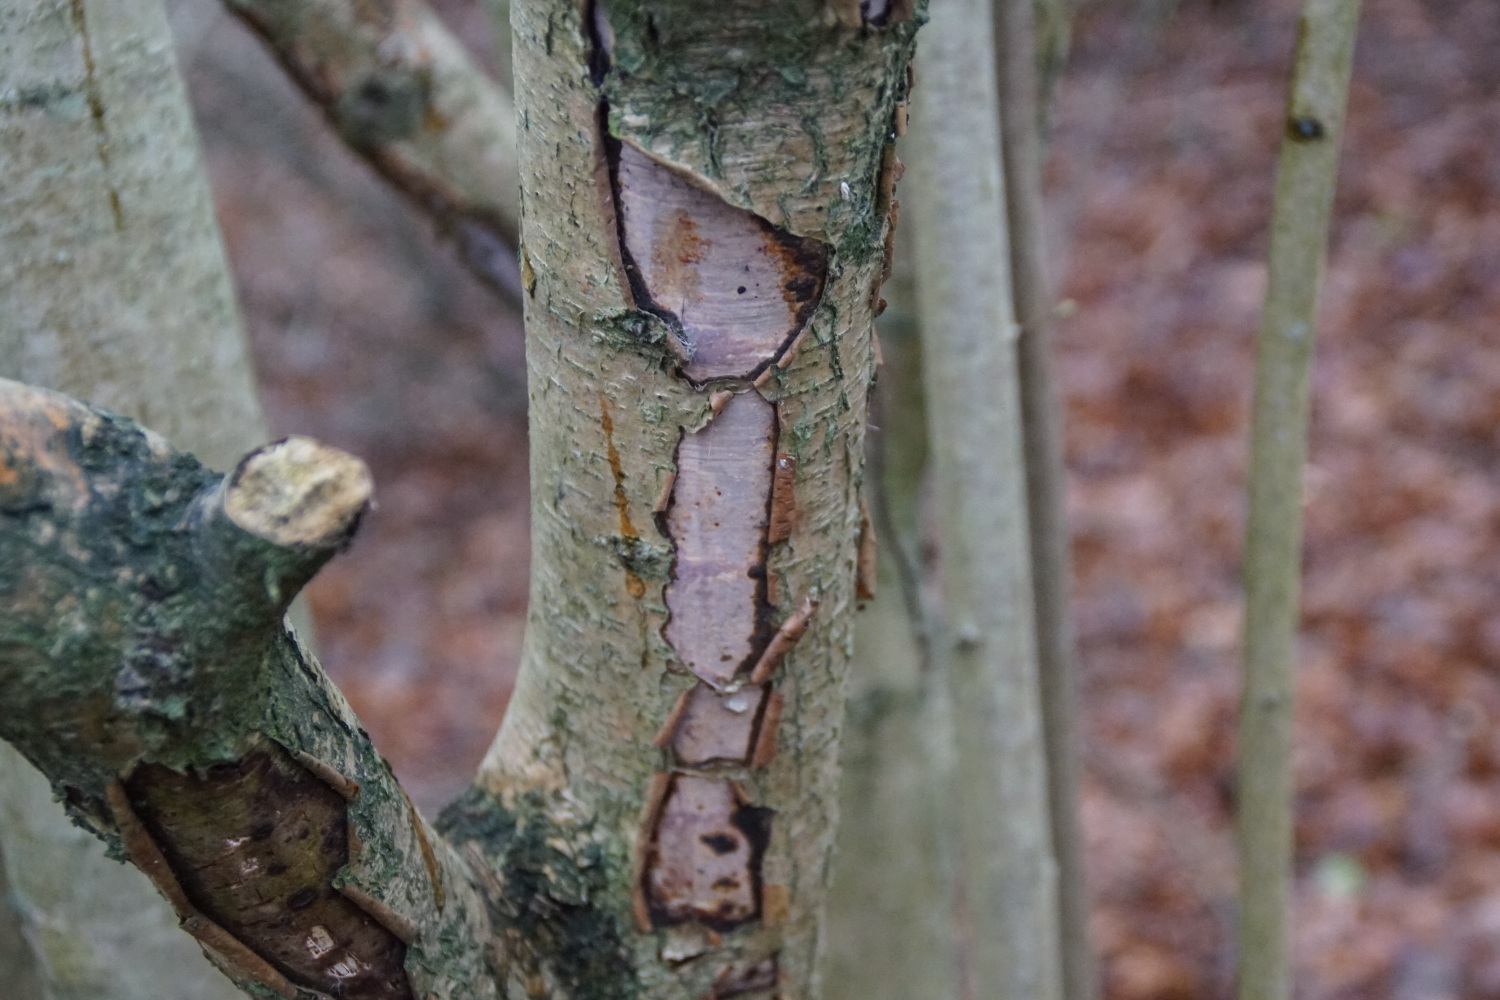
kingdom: Fungi
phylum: Basidiomycota
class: Agaricomycetes
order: Corticiales
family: Vuilleminiaceae
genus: Vuilleminia
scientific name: Vuilleminia coryli
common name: hassel-barksprænger
